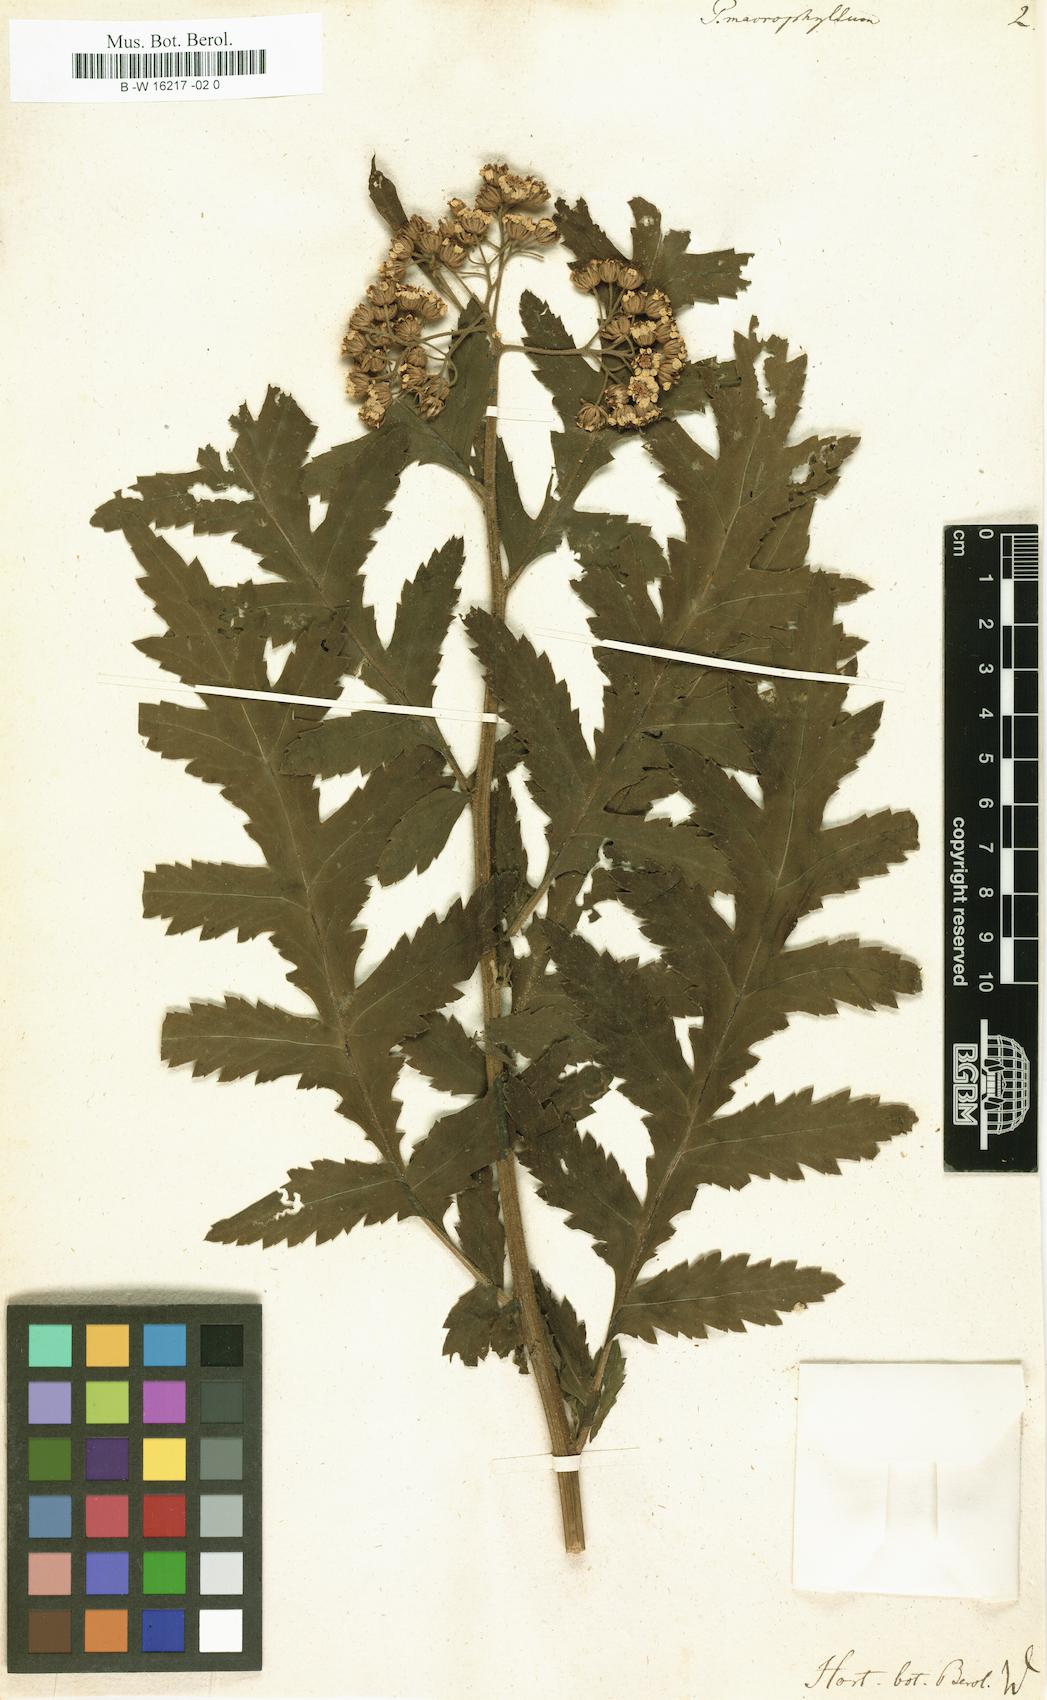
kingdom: Plantae
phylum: Tracheophyta
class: Magnoliopsida
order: Asterales
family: Asteraceae
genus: Tanacetum
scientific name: Tanacetum macrophyllum
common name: Rayed tansy
